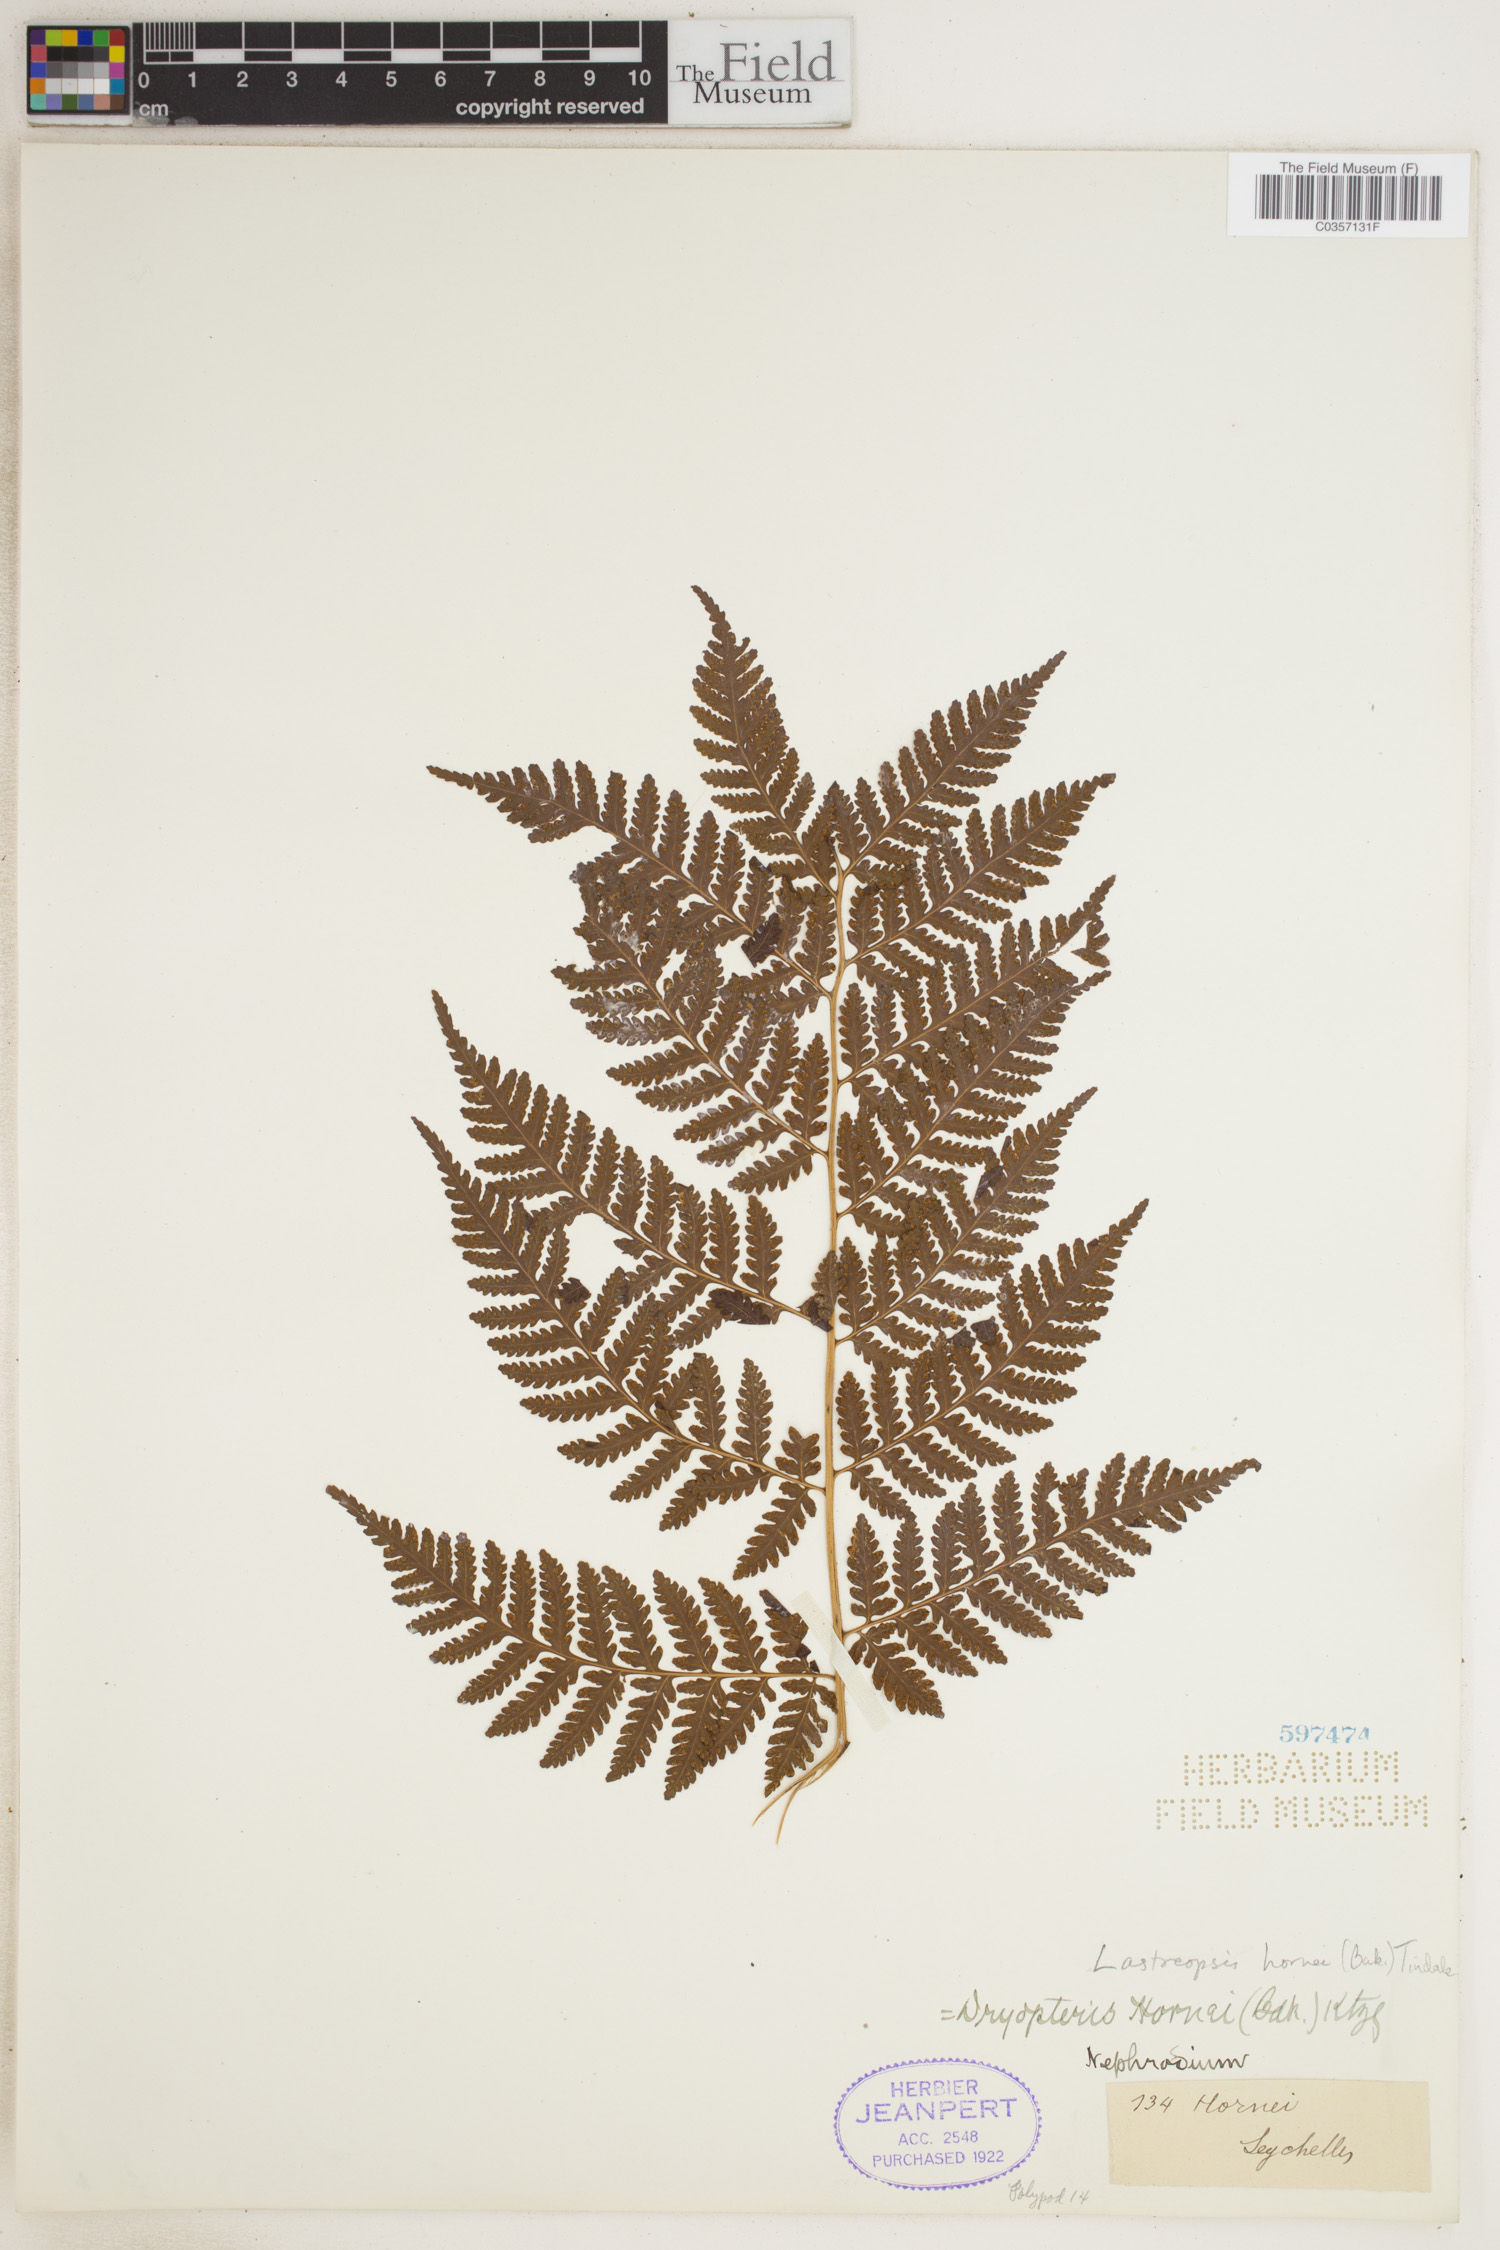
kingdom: Plantae
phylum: Tracheophyta
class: Polypodiopsida
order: Polypodiales
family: Dryopteridaceae
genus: Parapolystichum
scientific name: Parapolystichum hornei
